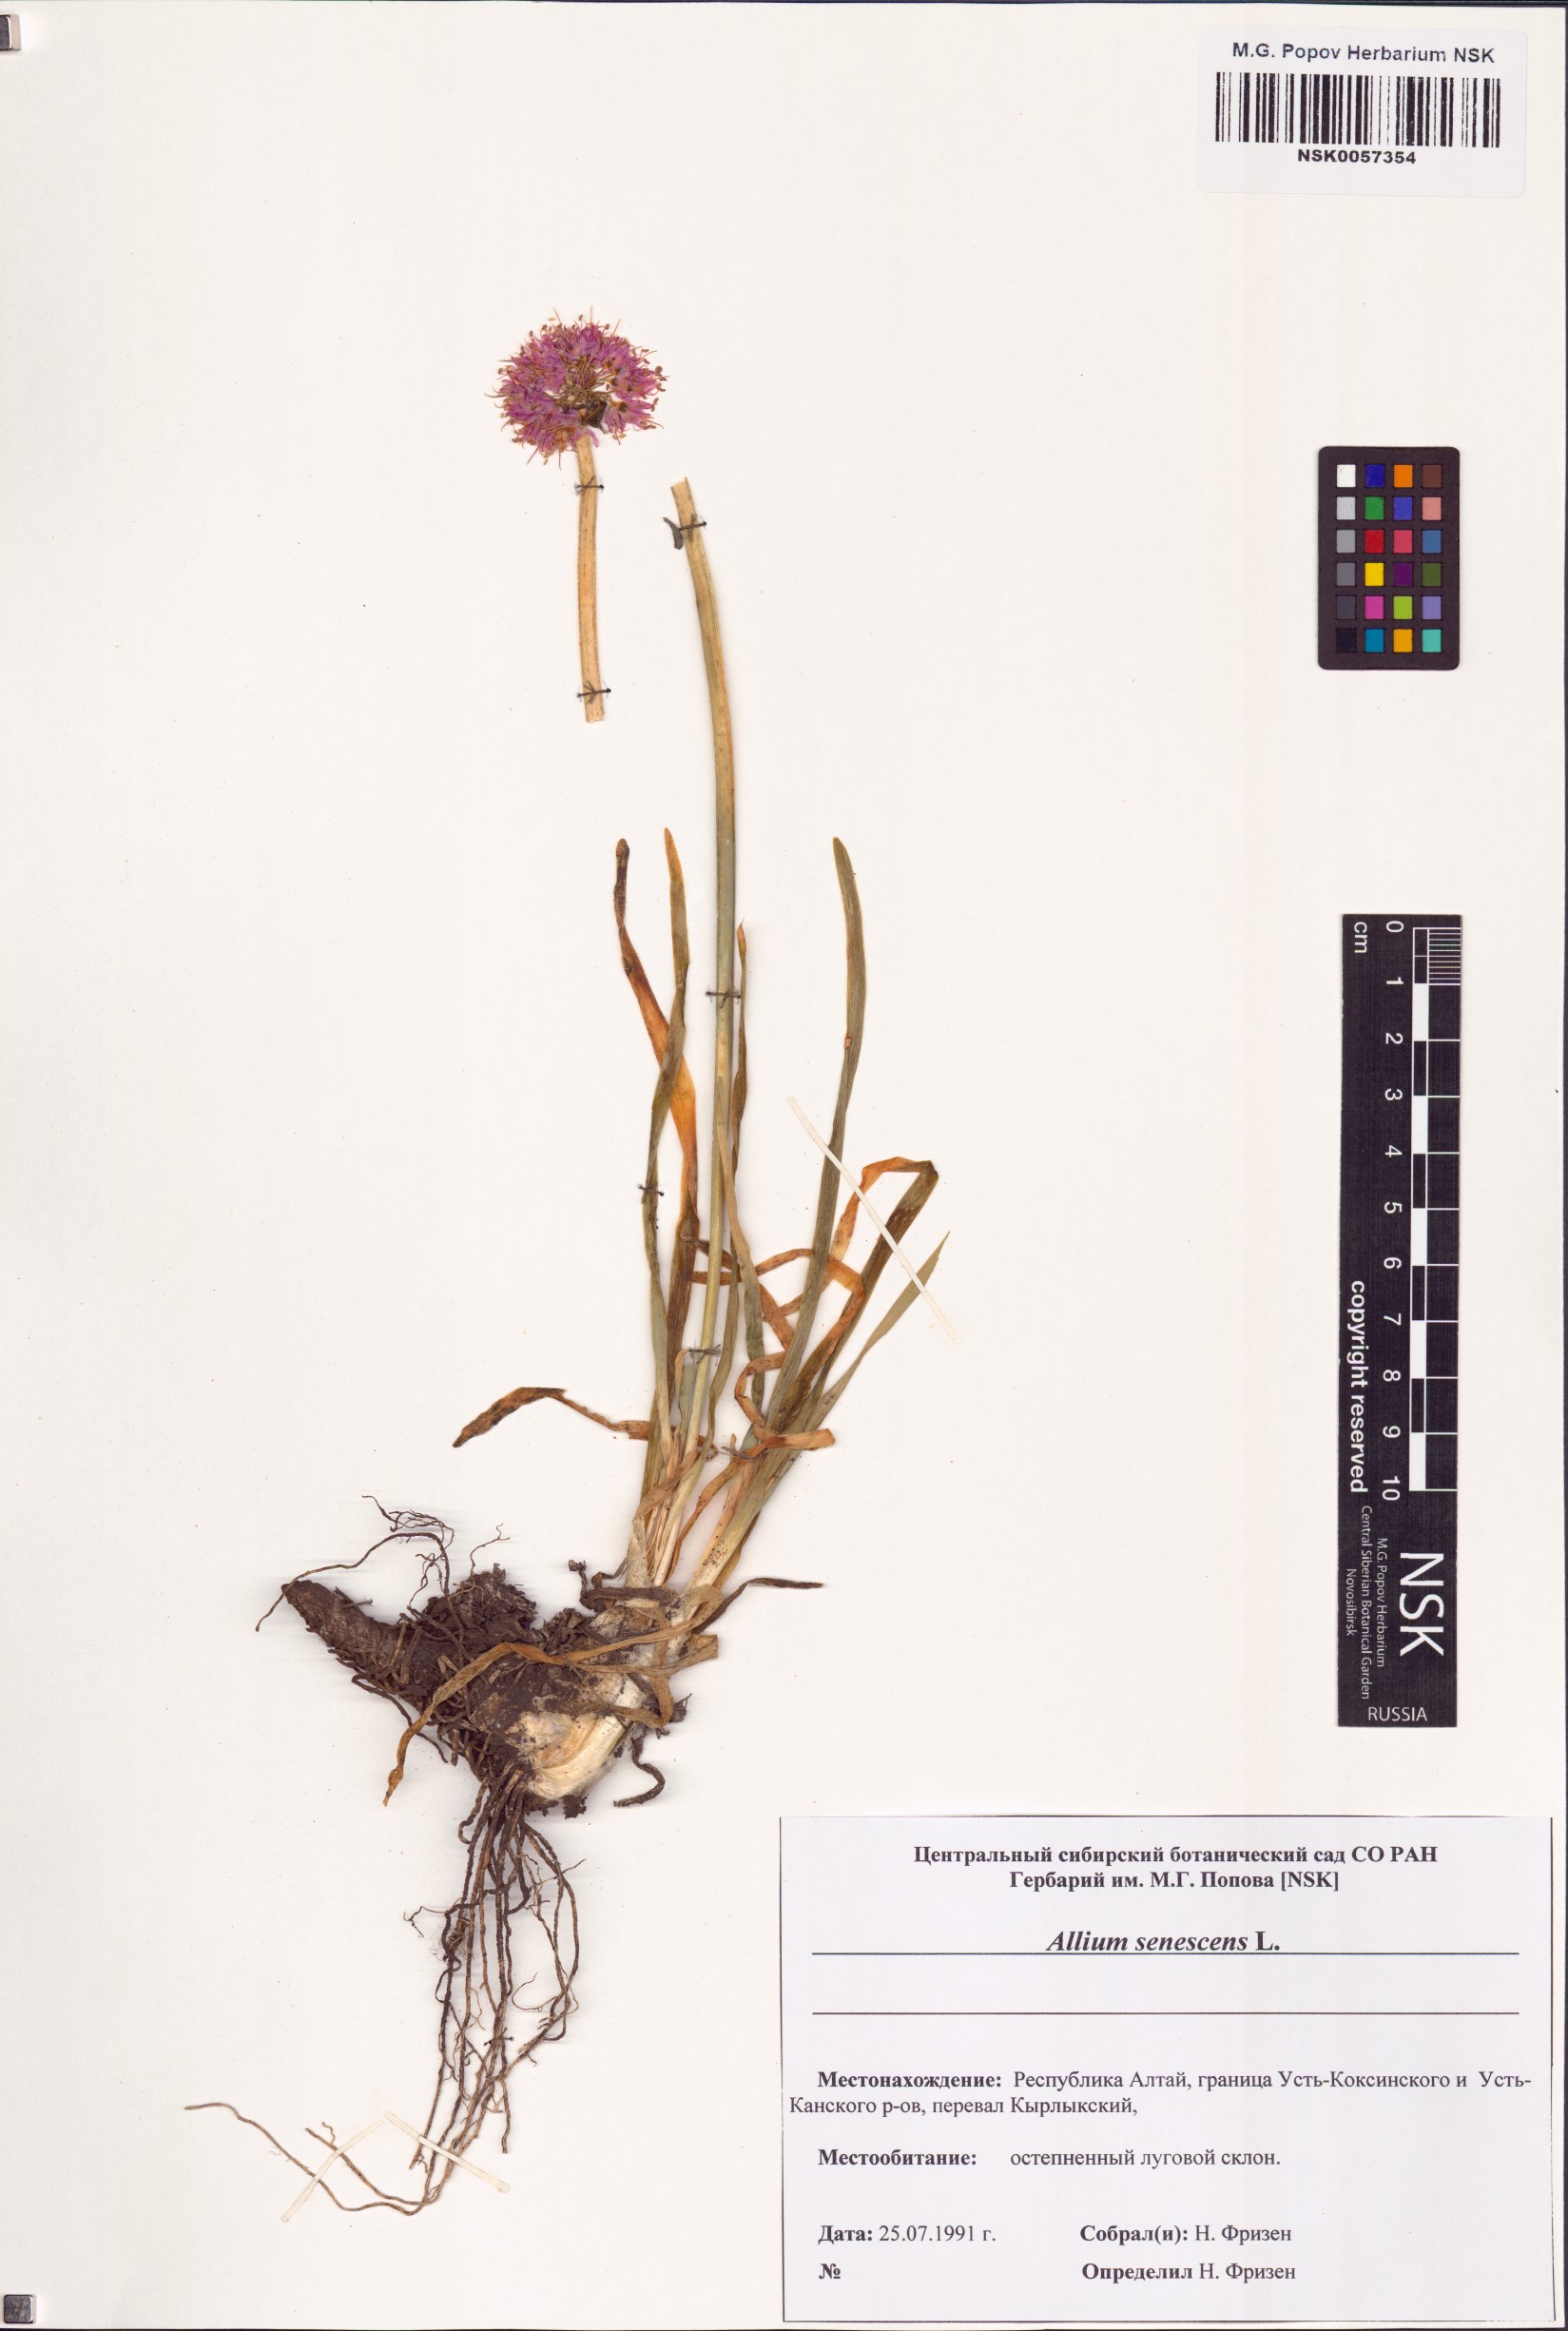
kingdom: Plantae
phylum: Tracheophyta
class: Liliopsida
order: Asparagales
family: Amaryllidaceae
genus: Allium
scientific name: Allium senescens
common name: German garlic
